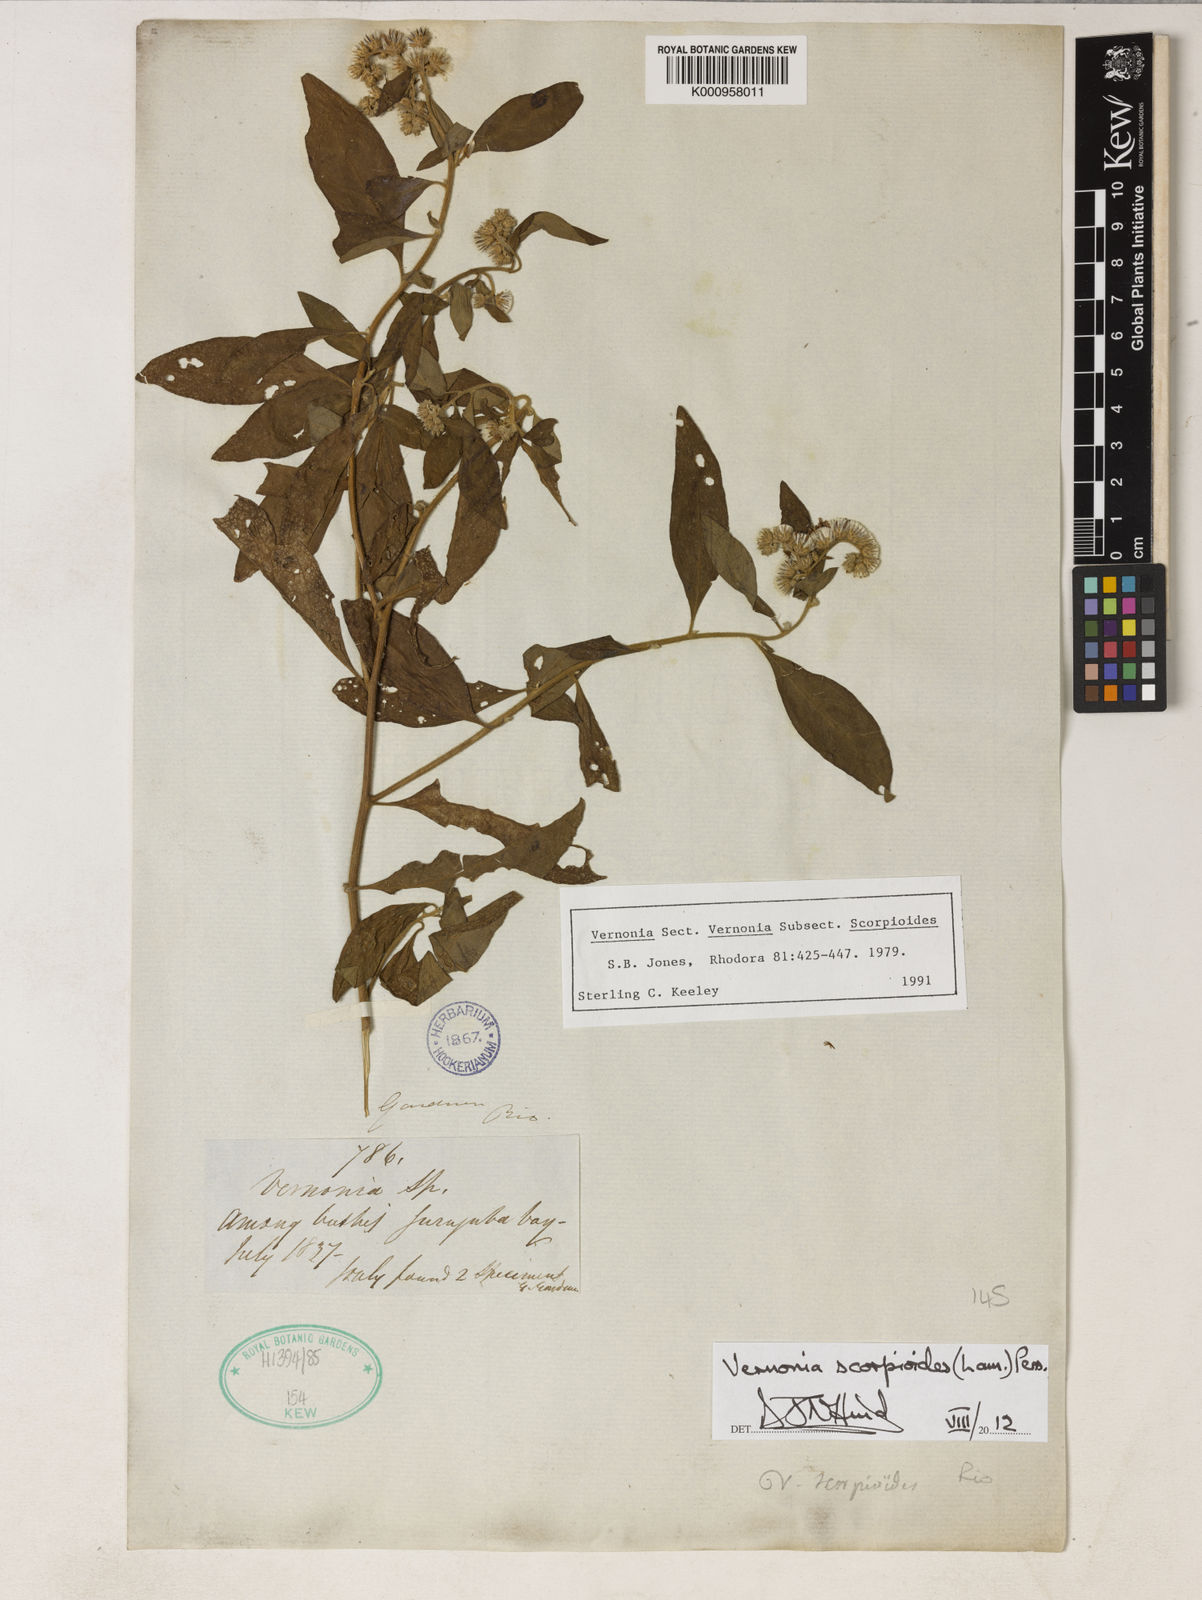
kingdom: Plantae
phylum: Tracheophyta
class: Magnoliopsida
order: Asterales
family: Asteraceae
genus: Cyrtocymura
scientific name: Cyrtocymura scorpioides
